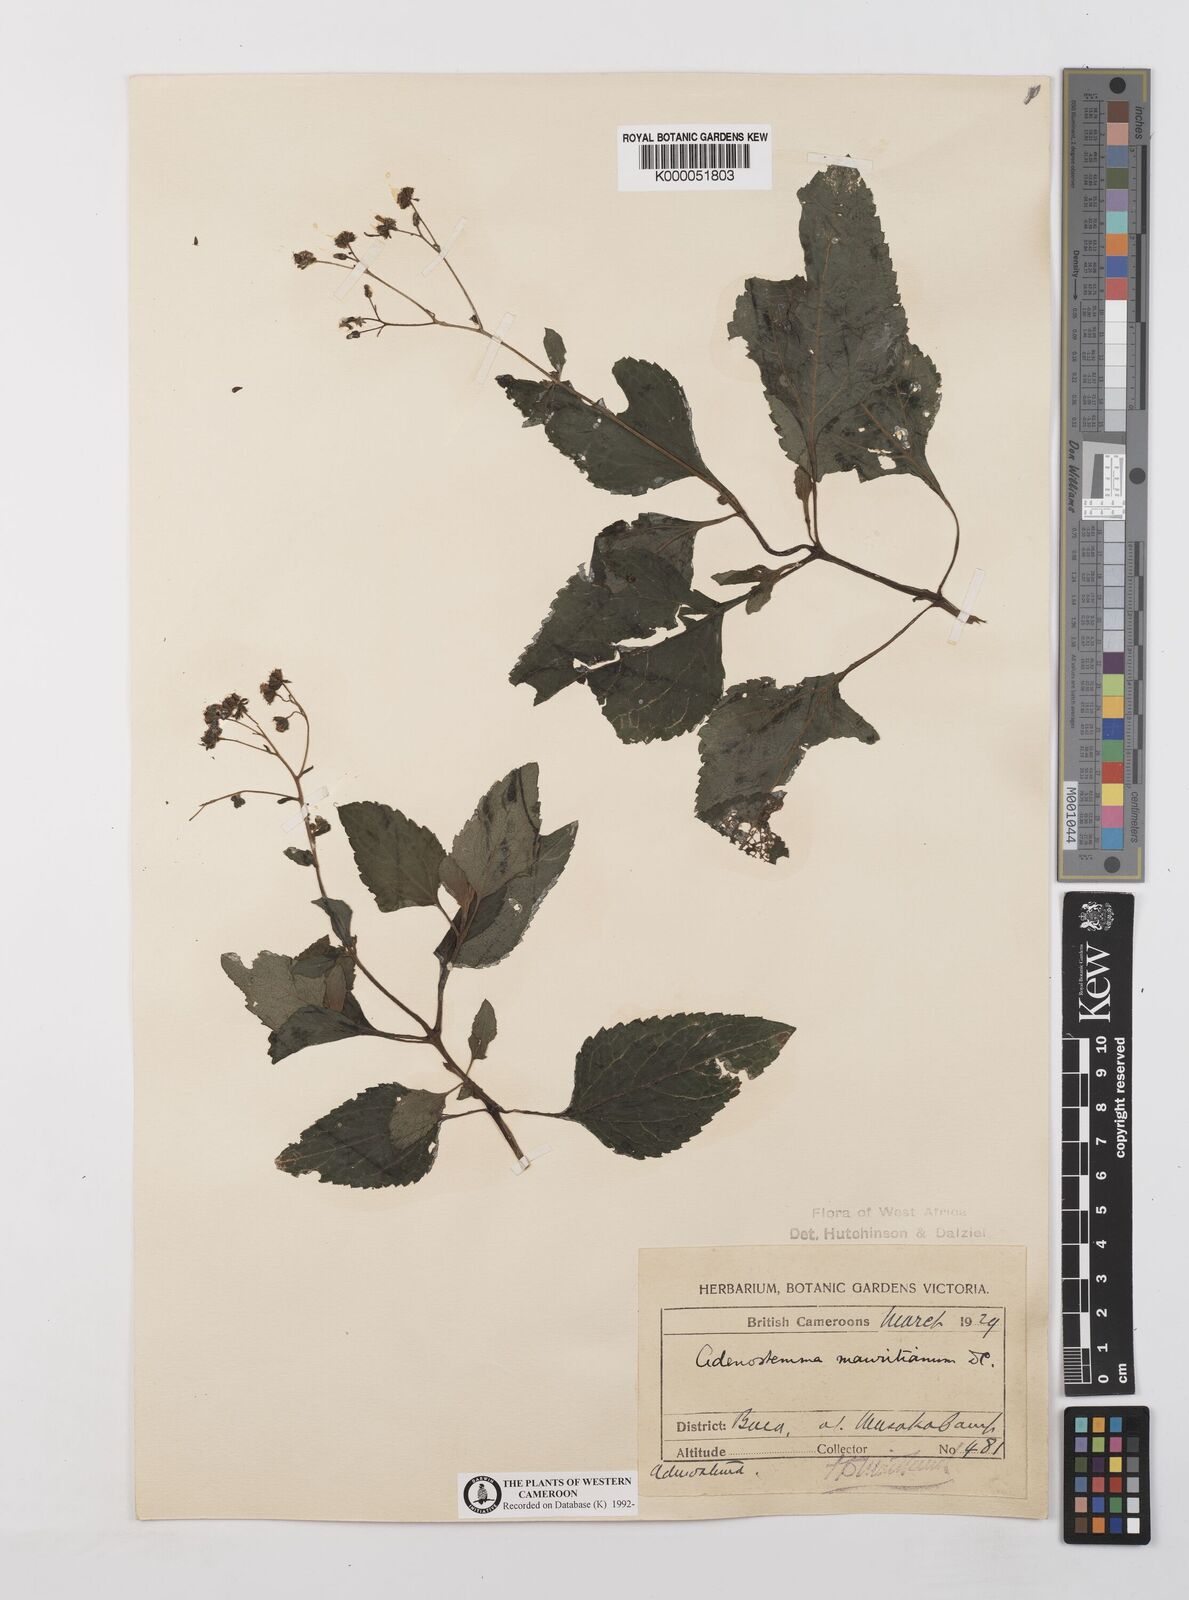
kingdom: Plantae
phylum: Tracheophyta
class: Magnoliopsida
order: Asterales
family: Asteraceae
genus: Adenostemma
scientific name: Adenostemma mauritianum
